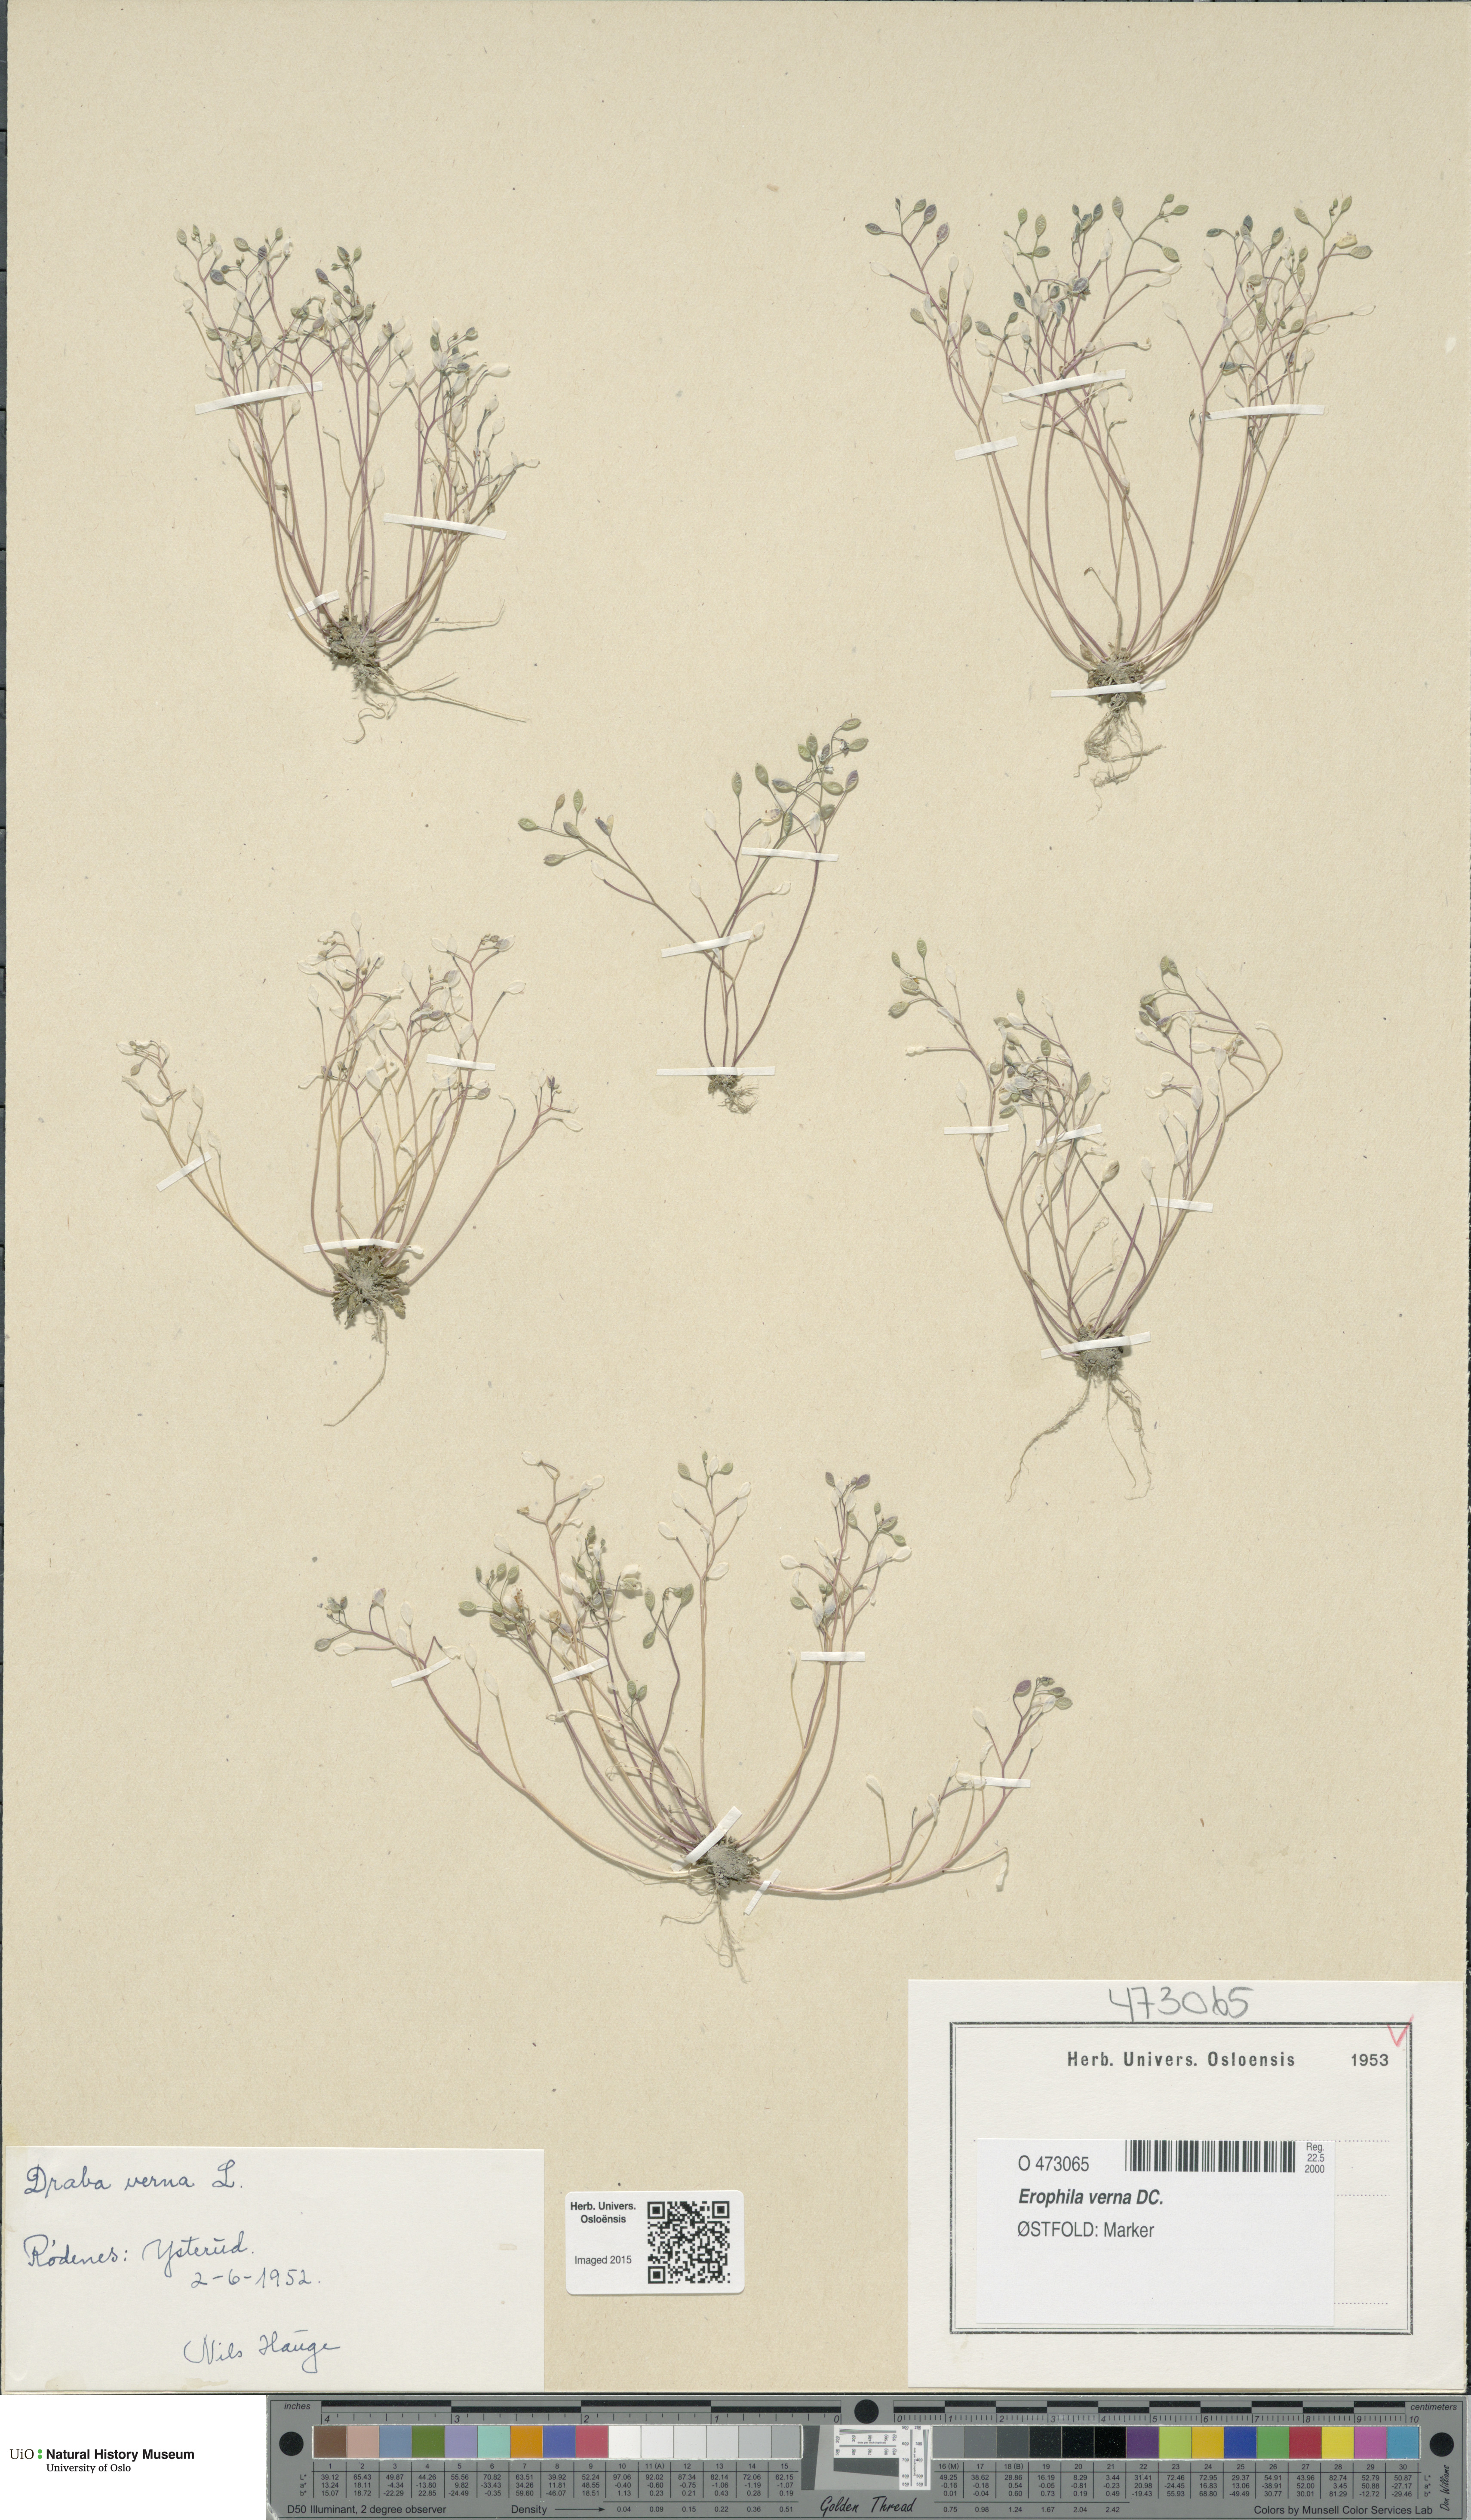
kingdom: Plantae
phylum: Tracheophyta
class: Magnoliopsida
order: Brassicales
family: Brassicaceae
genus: Draba
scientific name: Draba verna
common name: Spring draba
